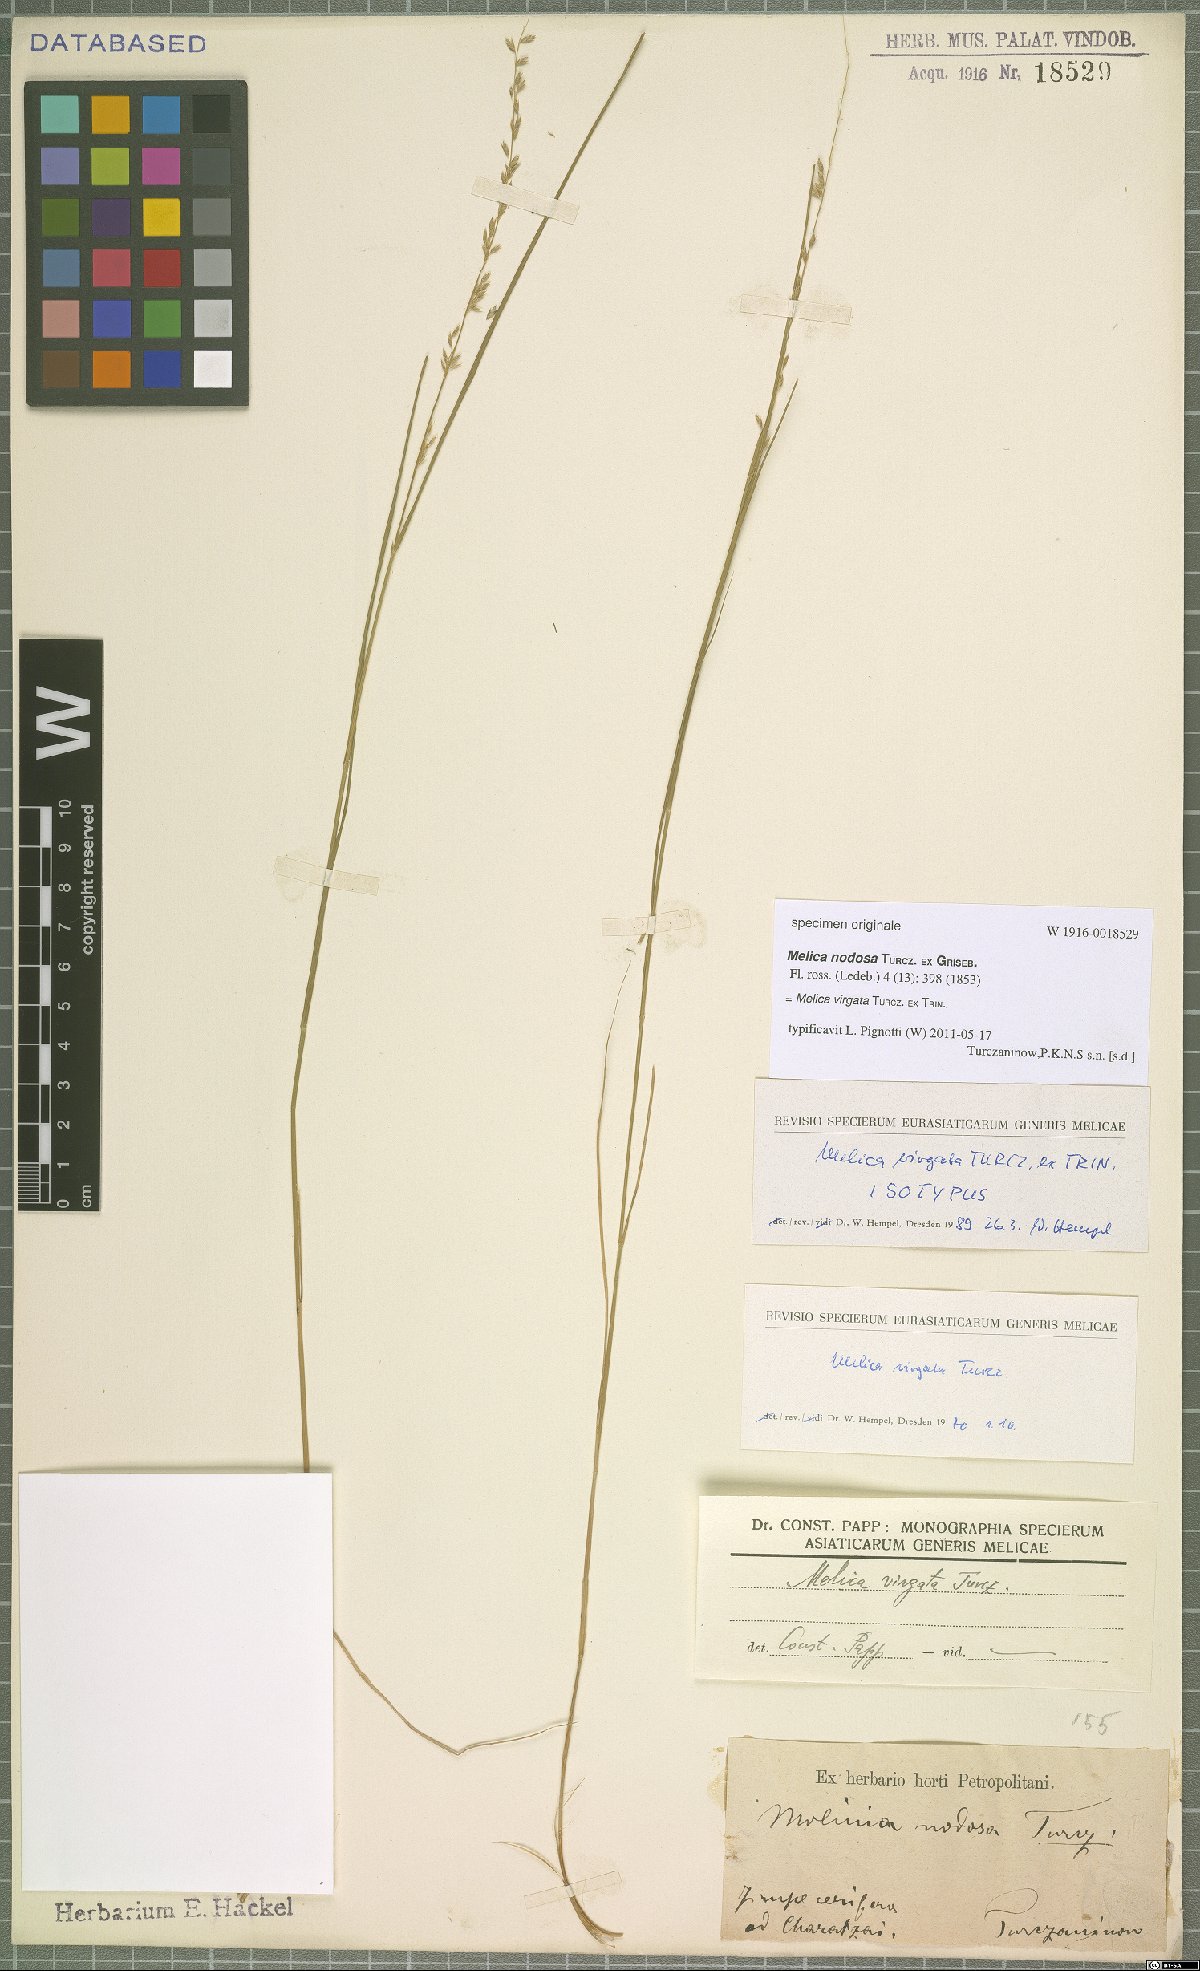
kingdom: Plantae
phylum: Tracheophyta
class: Liliopsida
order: Poales
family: Poaceae
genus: Melica
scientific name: Melica virgata
